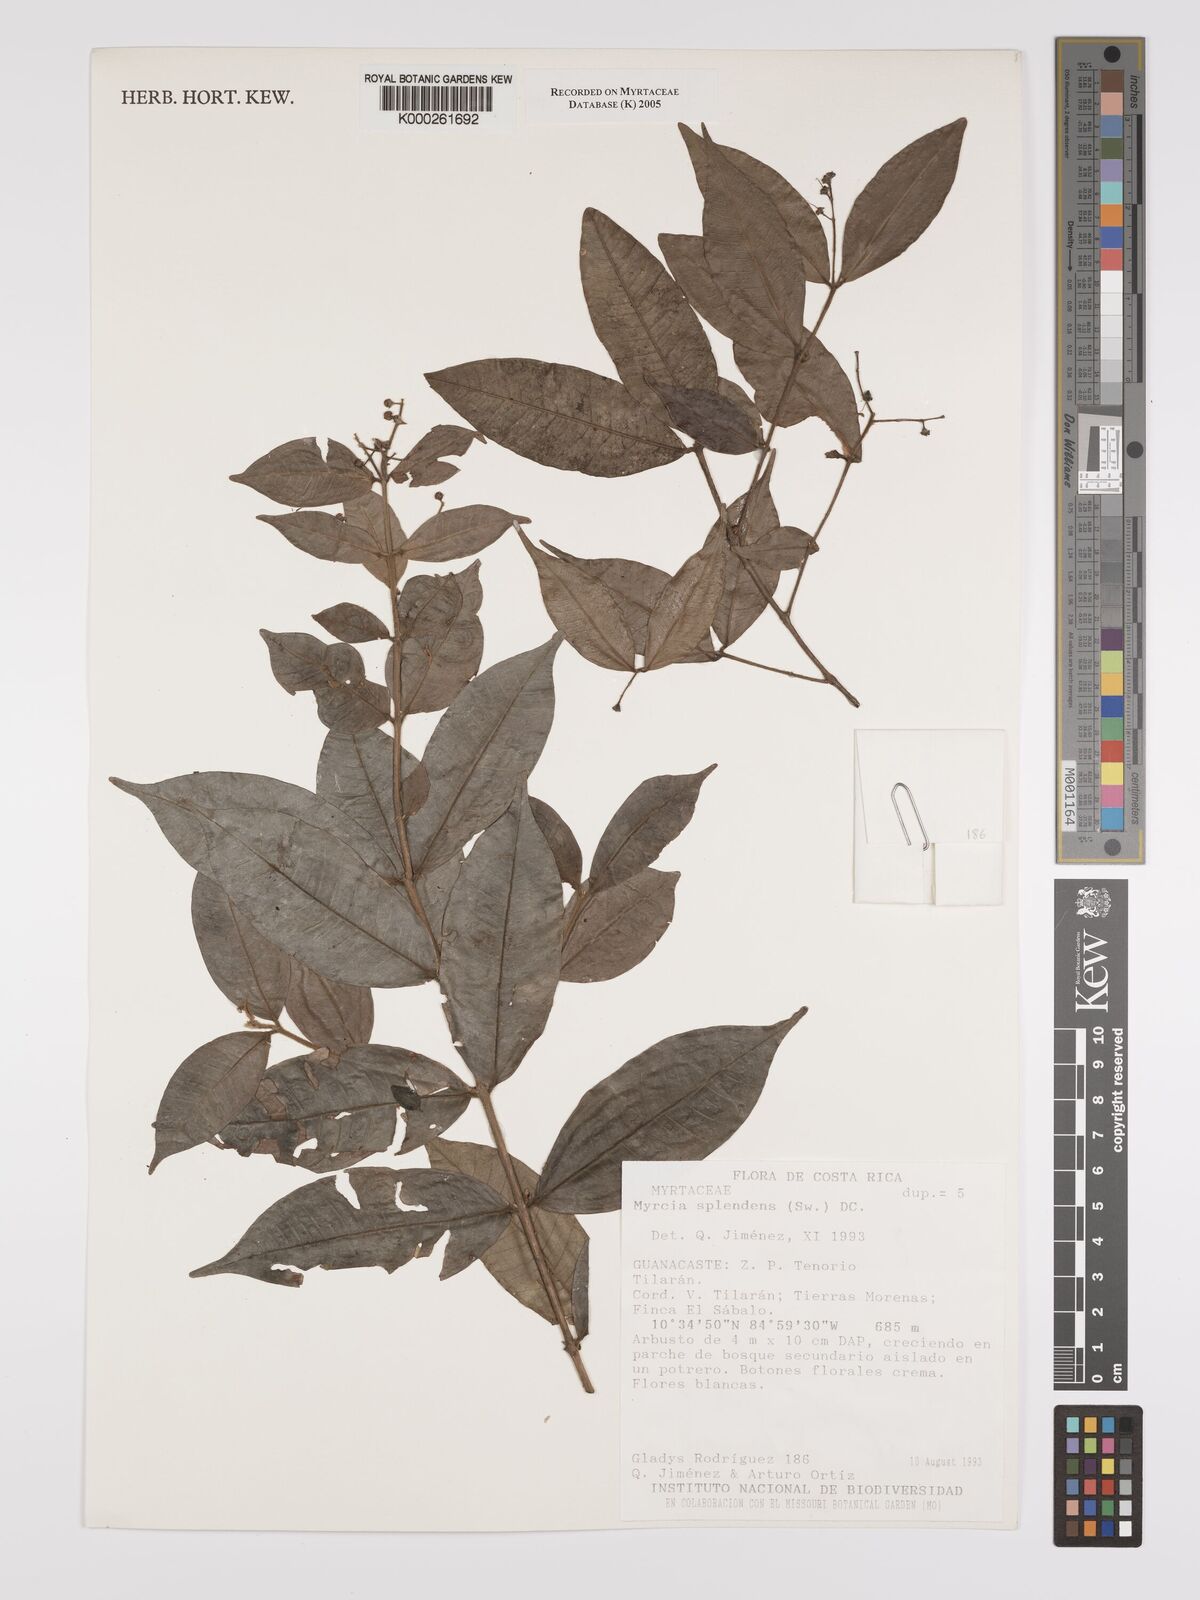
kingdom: Plantae
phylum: Tracheophyta
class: Magnoliopsida
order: Myrtales
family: Myrtaceae
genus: Myrcia
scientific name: Myrcia splendens
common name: Surinam cherry
